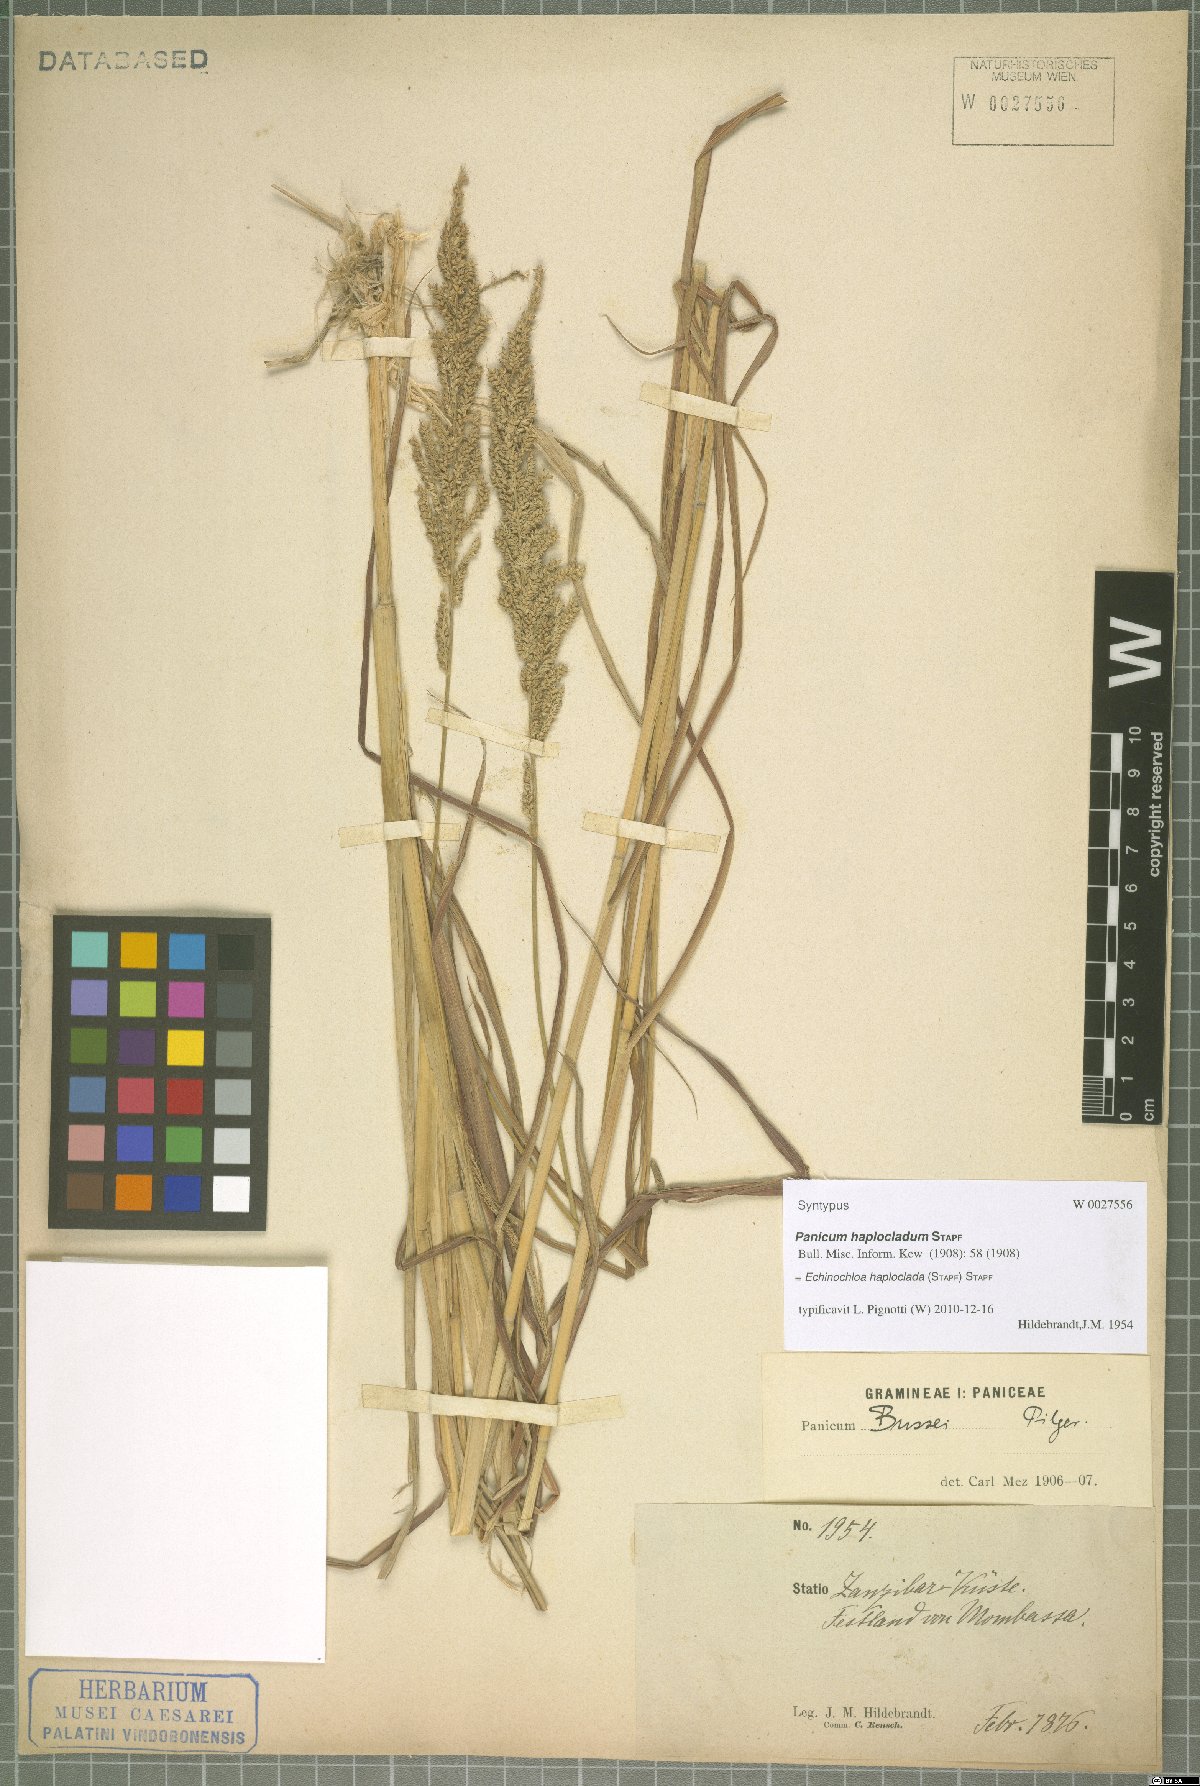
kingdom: Plantae
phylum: Tracheophyta
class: Liliopsida
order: Poales
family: Poaceae
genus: Echinochloa
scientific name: Echinochloa haploclada
